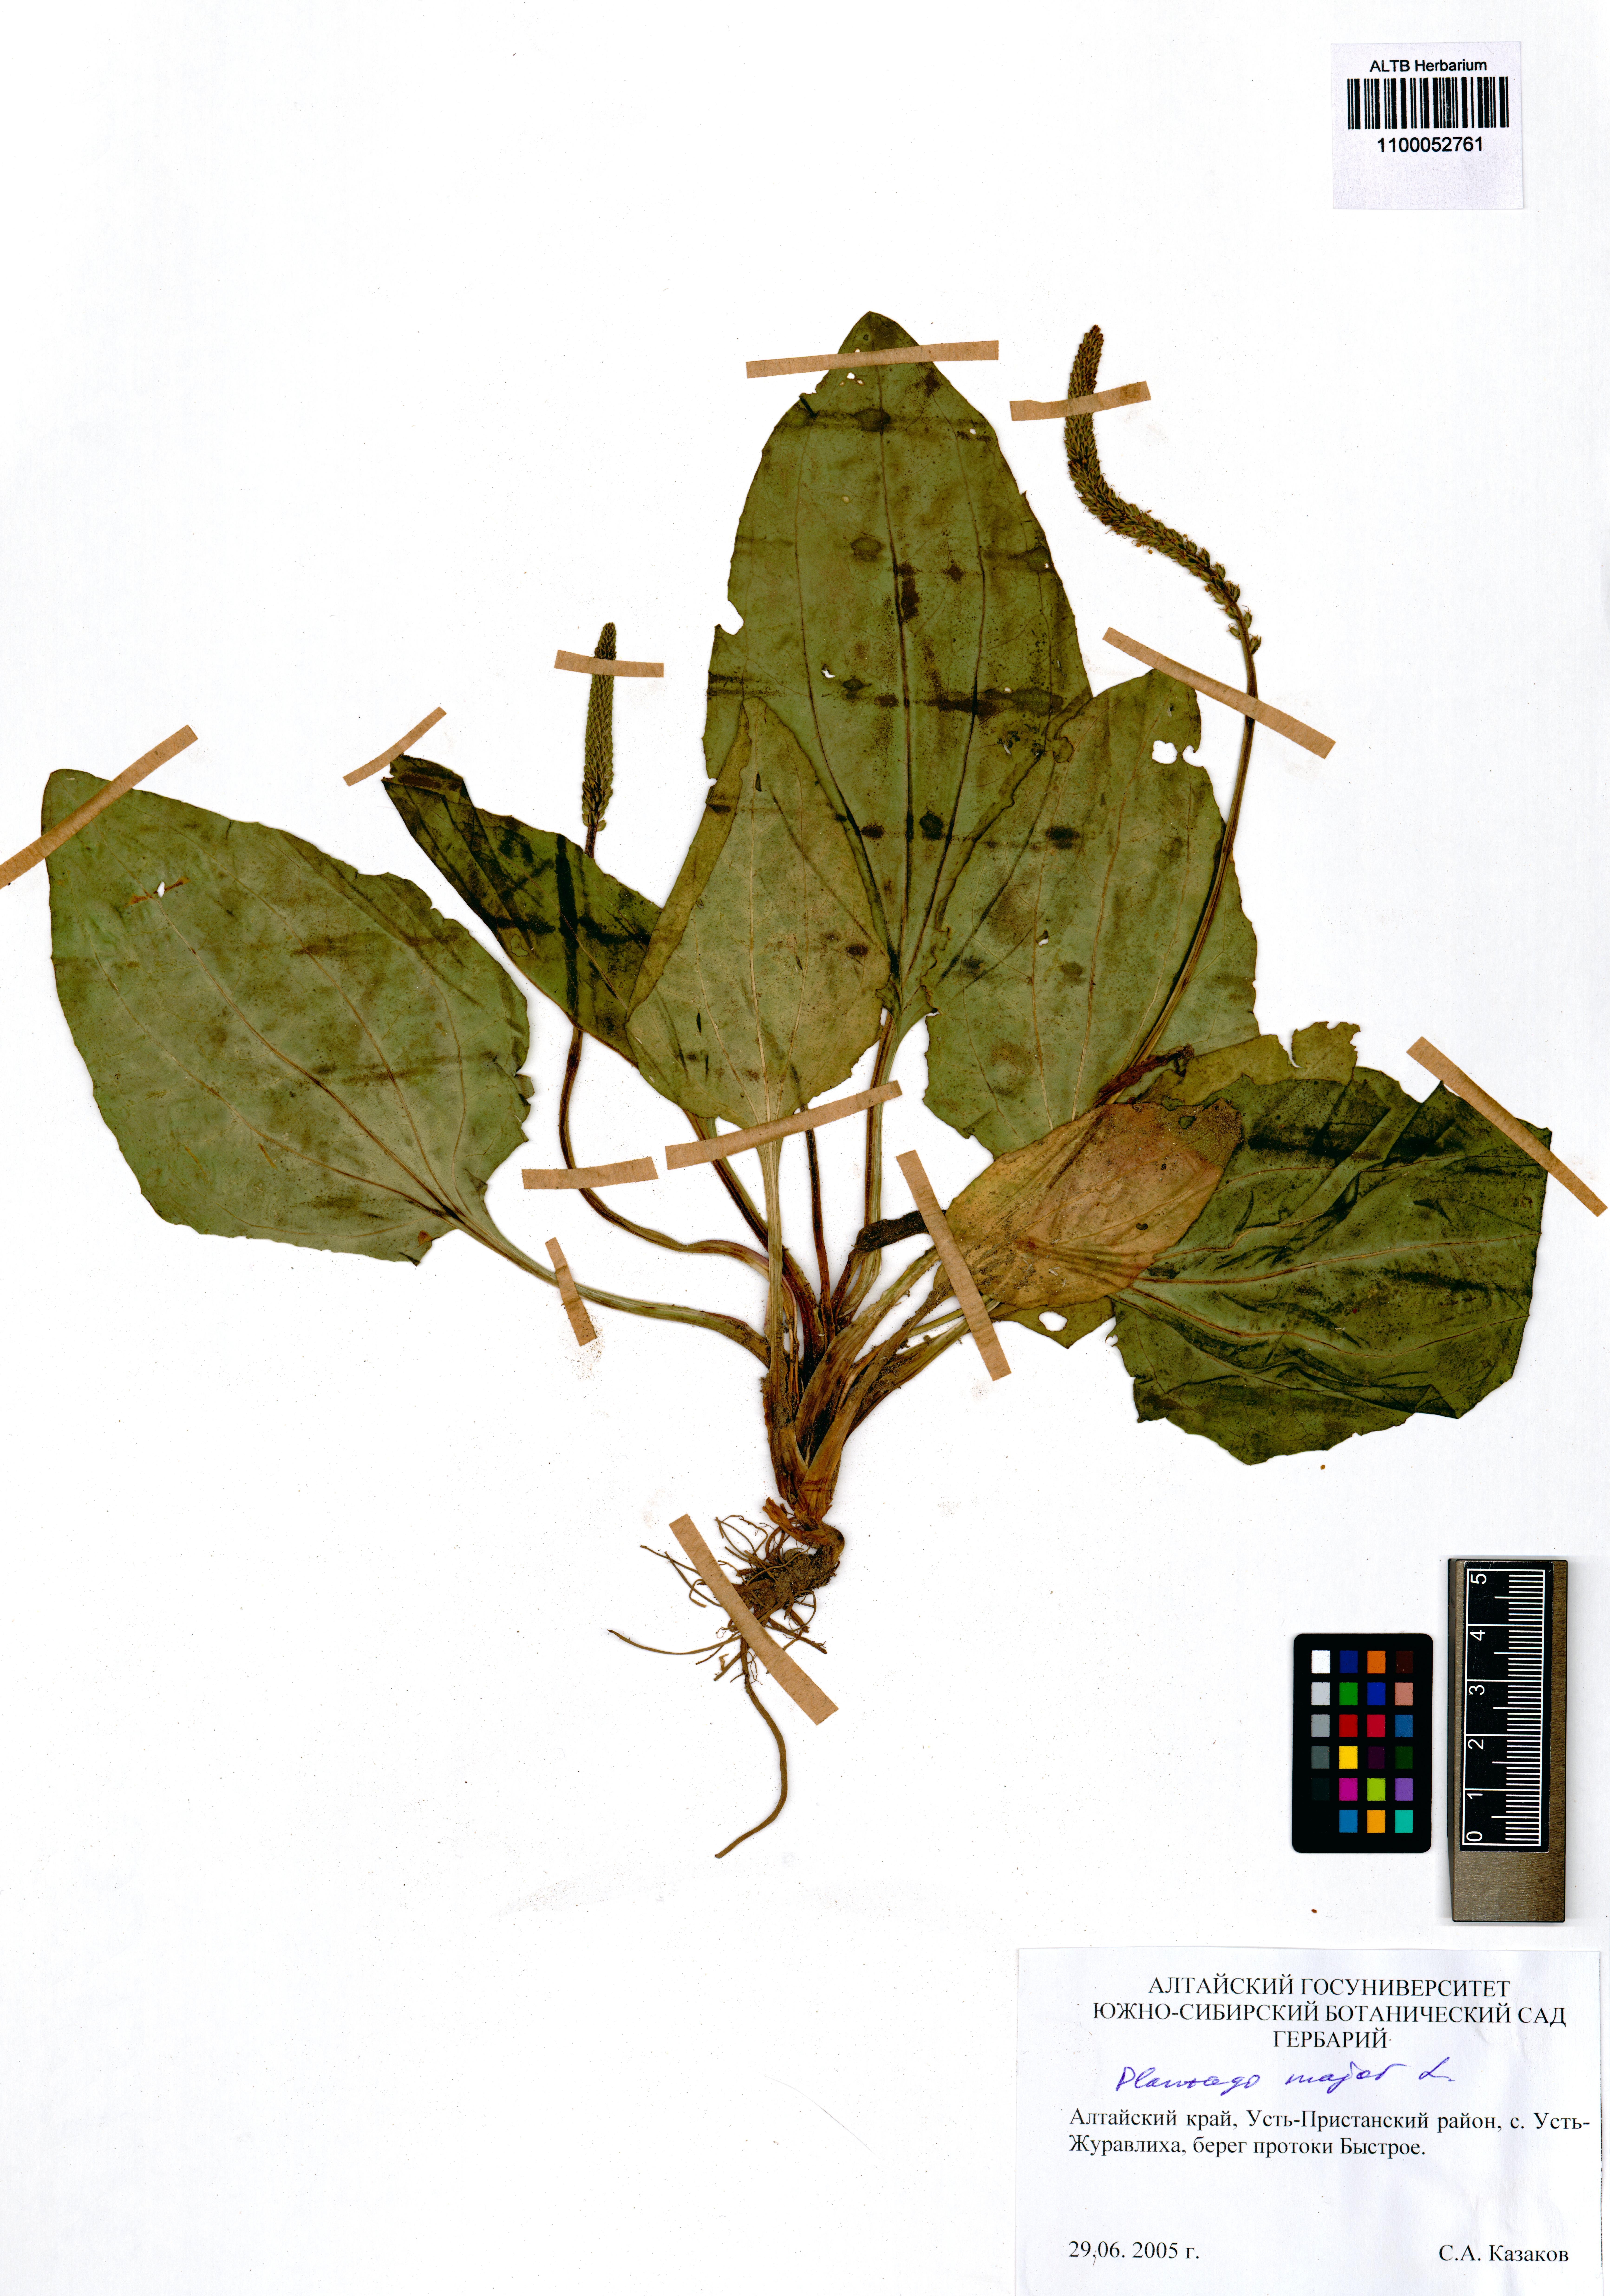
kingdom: Plantae
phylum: Tracheophyta
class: Magnoliopsida
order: Lamiales
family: Plantaginaceae
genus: Plantago
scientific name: Plantago major
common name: Common plantain
